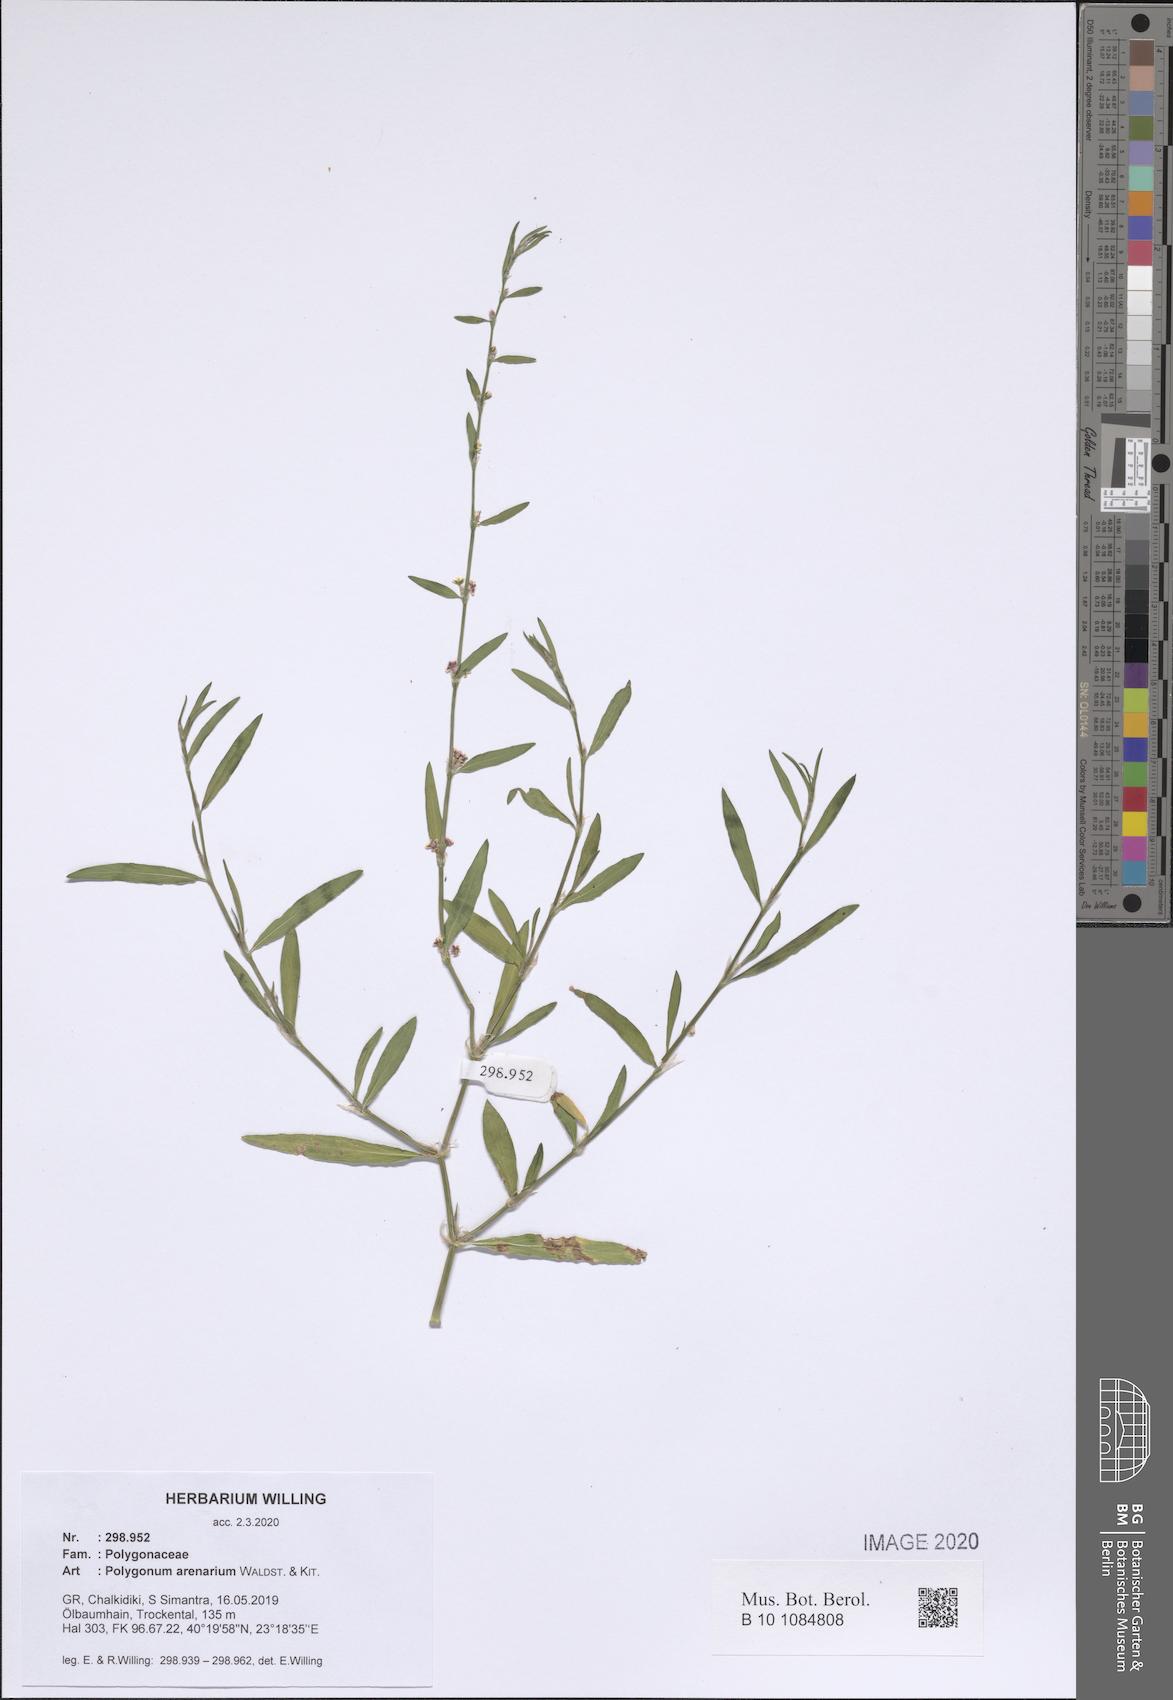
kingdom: Plantae
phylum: Tracheophyta
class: Magnoliopsida
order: Caryophyllales
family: Polygonaceae
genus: Polygonum
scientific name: Polygonum arenarium
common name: Lesser red-knotgrass
